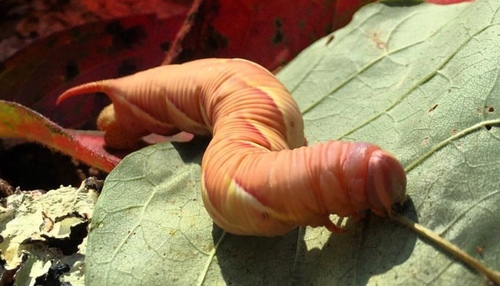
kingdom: Animalia
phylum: Arthropoda
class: Insecta
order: Lepidoptera
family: Sphingidae
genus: Ceratomia
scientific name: Ceratomia undulosa
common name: Waved sphinx
